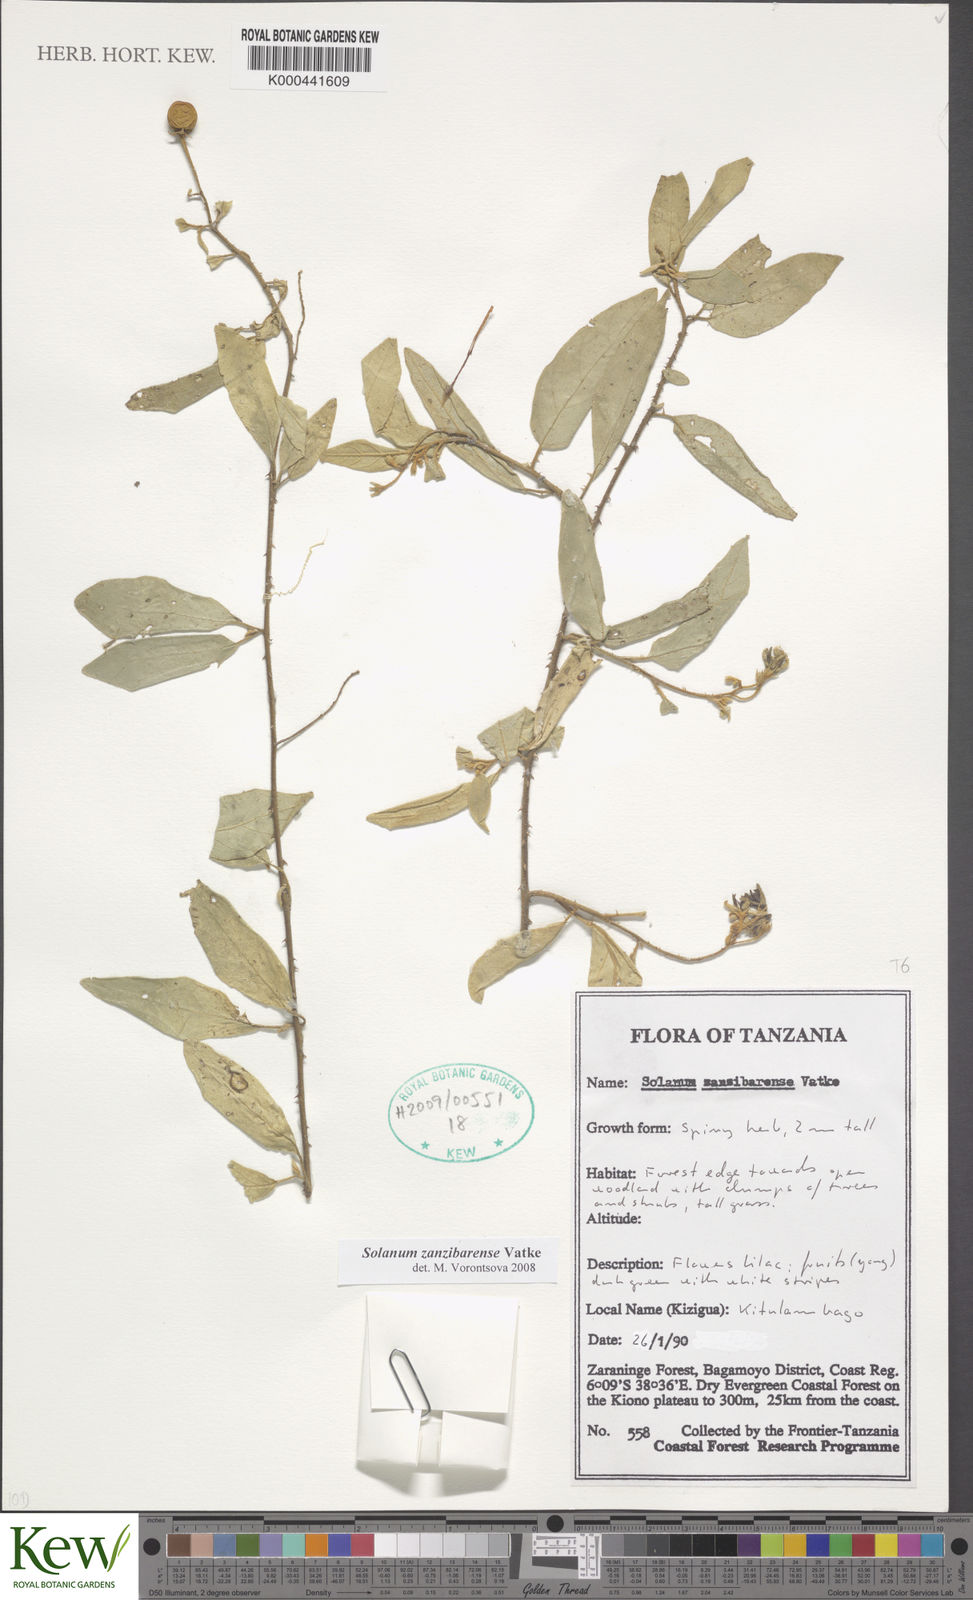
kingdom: Plantae
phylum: Tracheophyta
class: Magnoliopsida
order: Solanales
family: Solanaceae
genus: Solanum
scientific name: Solanum zanzibarense
